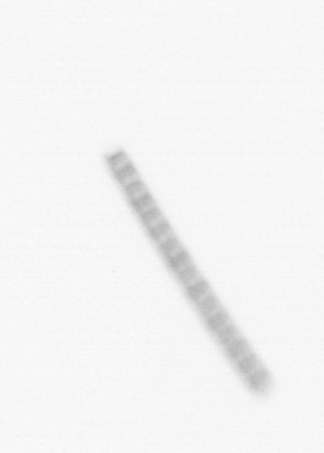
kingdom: Chromista
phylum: Ochrophyta
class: Bacillariophyceae
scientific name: Bacillariophyceae
